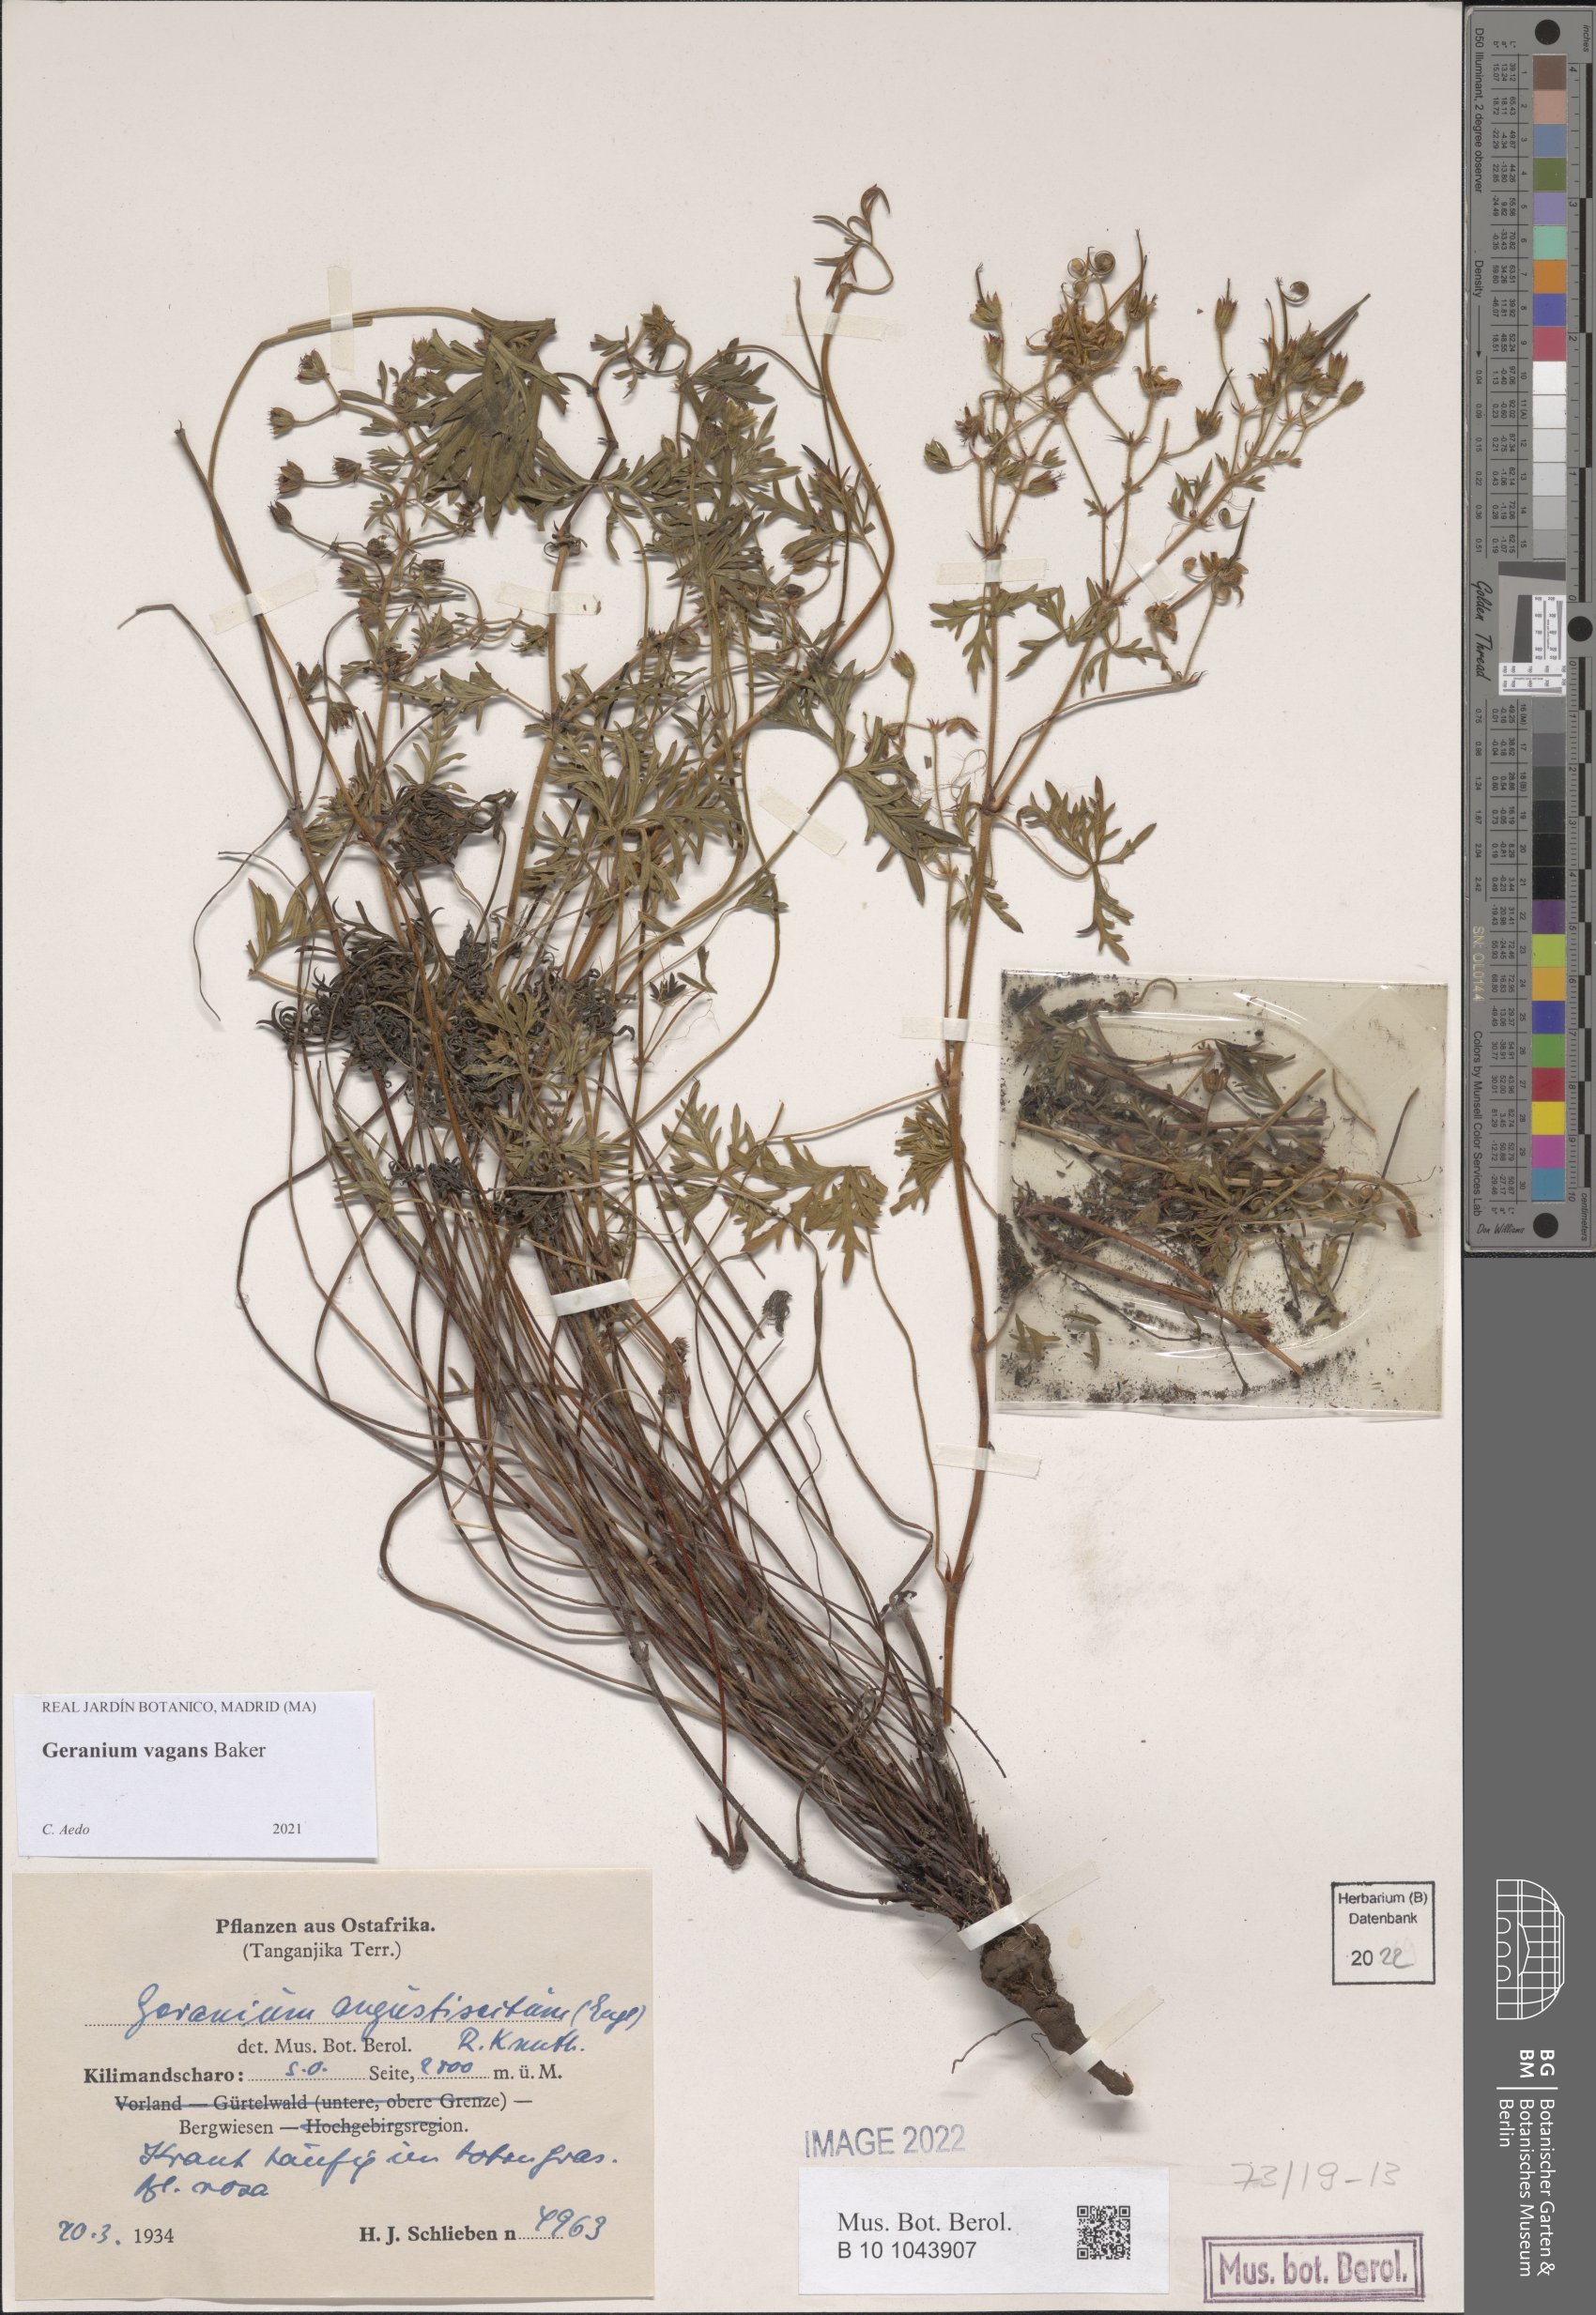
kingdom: Plantae
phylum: Tracheophyta
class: Magnoliopsida
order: Geraniales
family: Geraniaceae
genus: Geranium
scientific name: Geranium vagans
